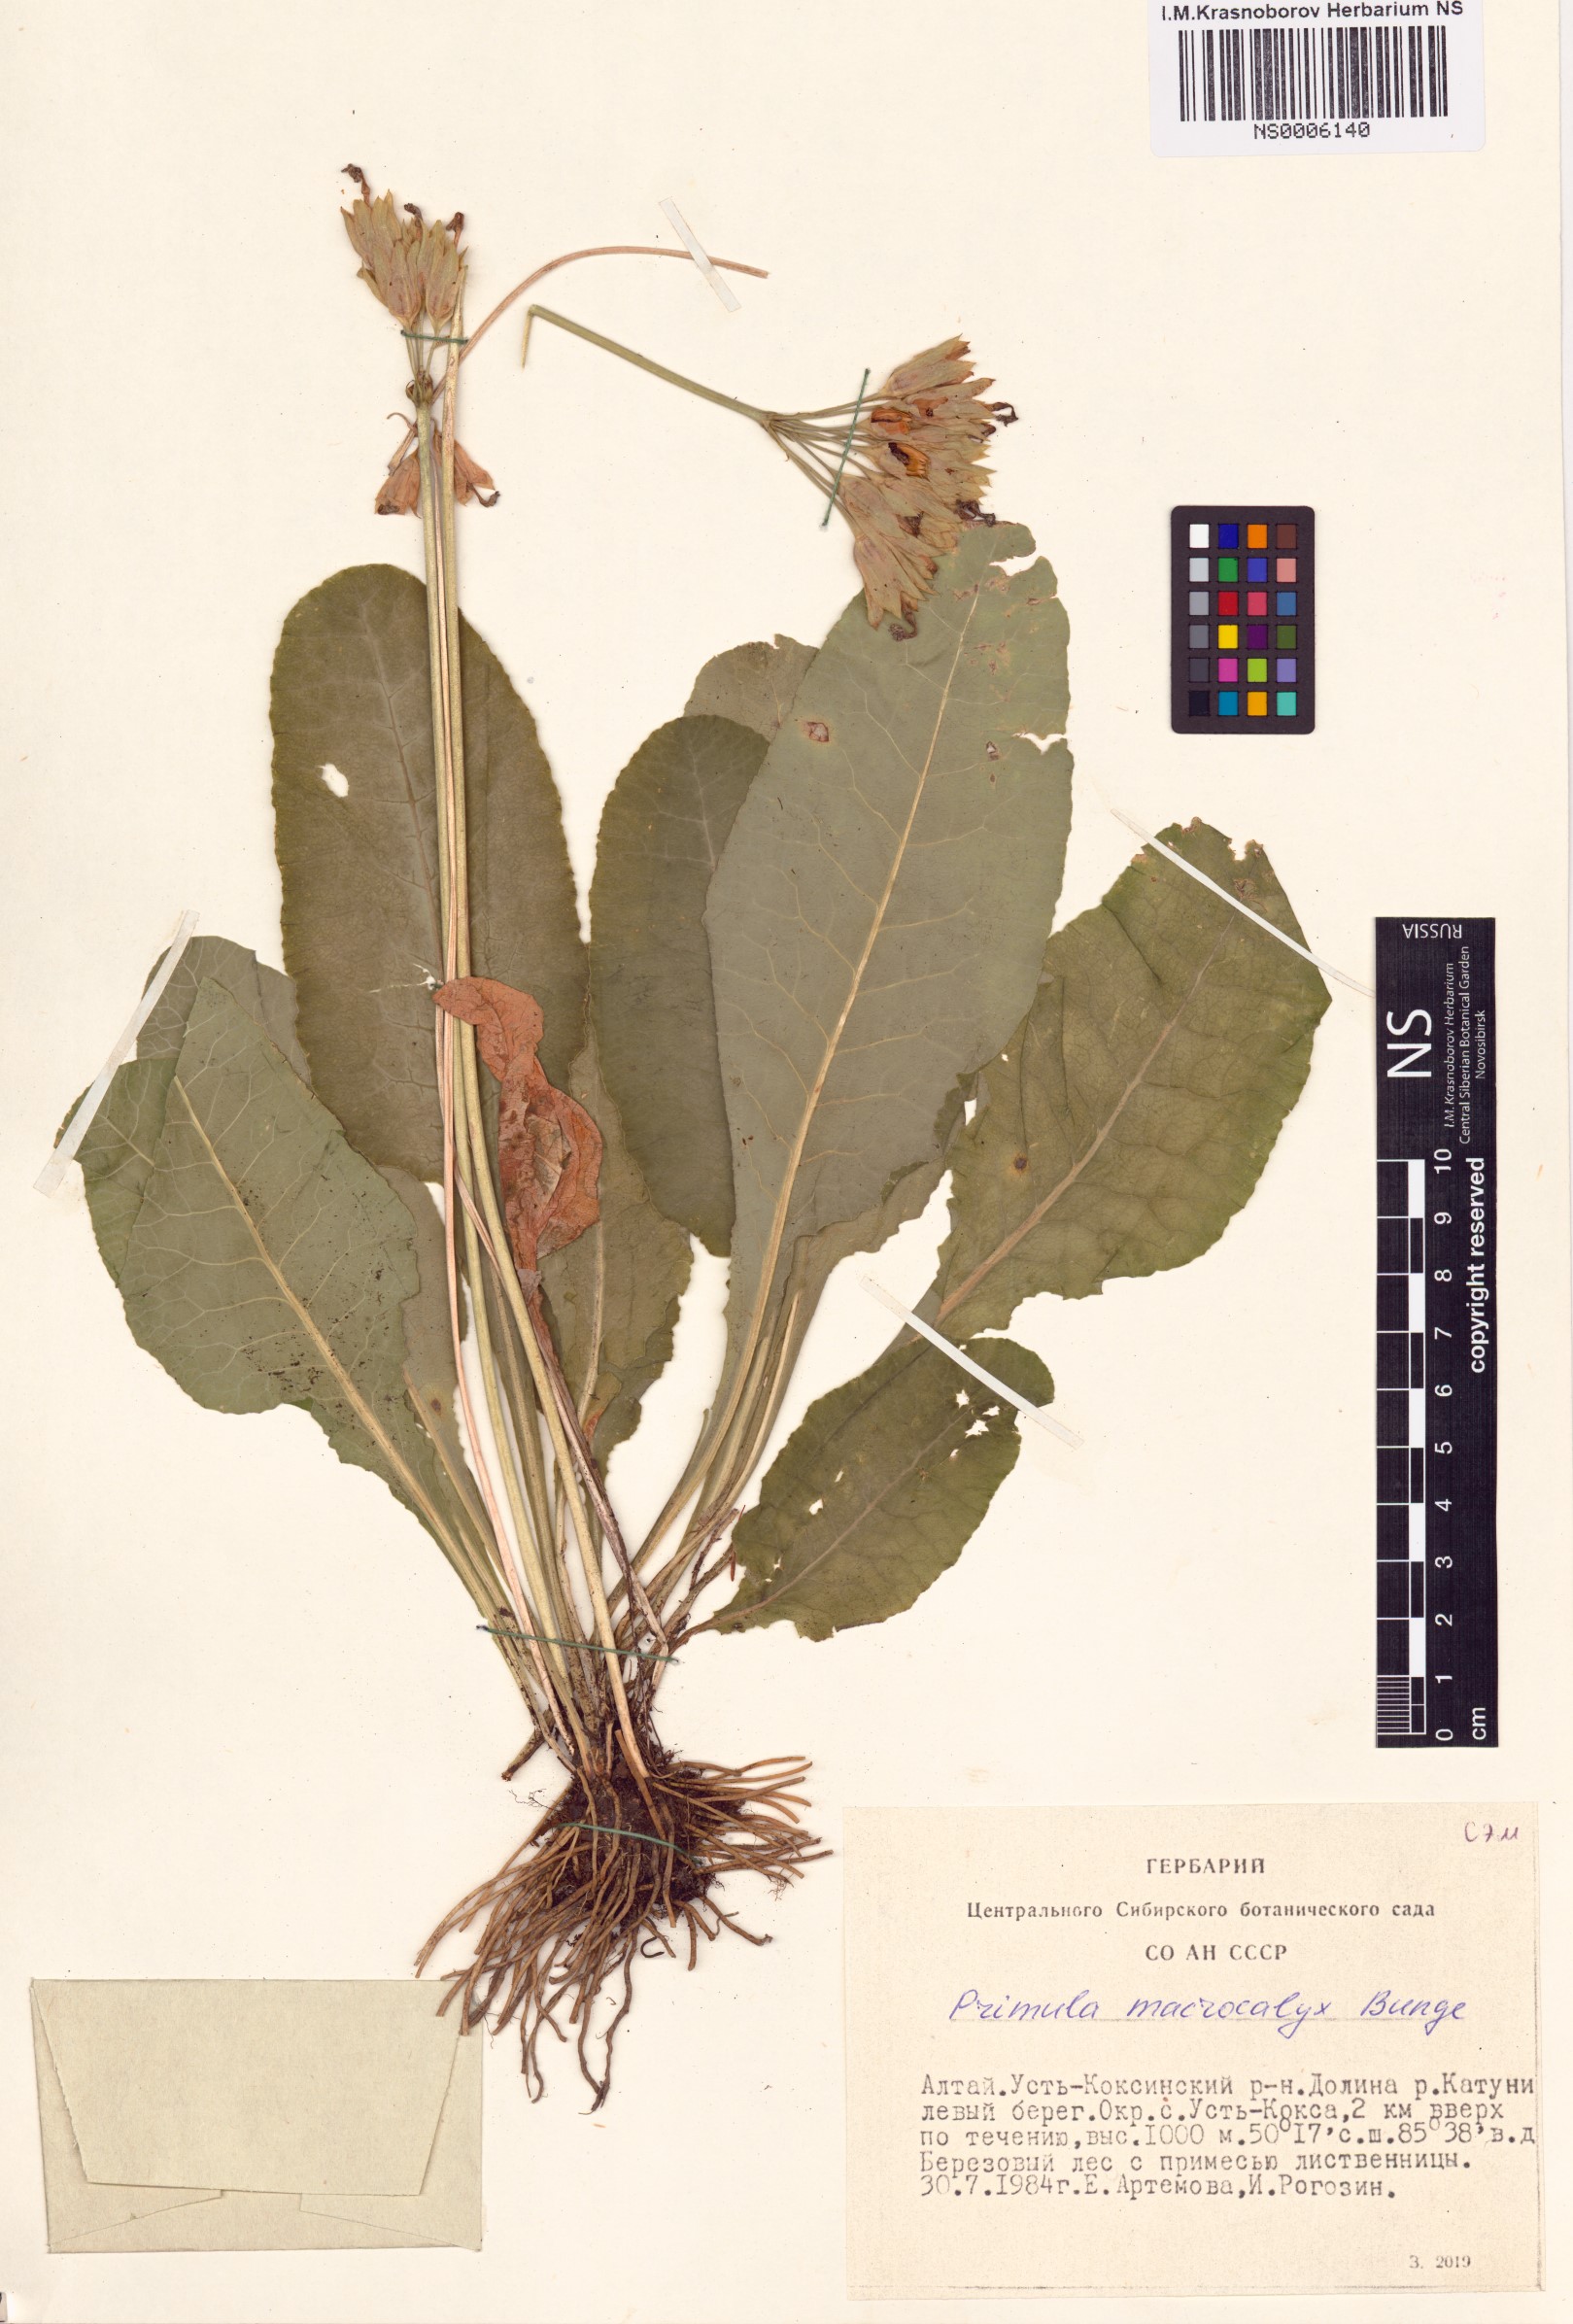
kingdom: Plantae
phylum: Tracheophyta
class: Magnoliopsida
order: Ericales
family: Primulaceae
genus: Primula
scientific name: Primula veris
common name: Cowslip
